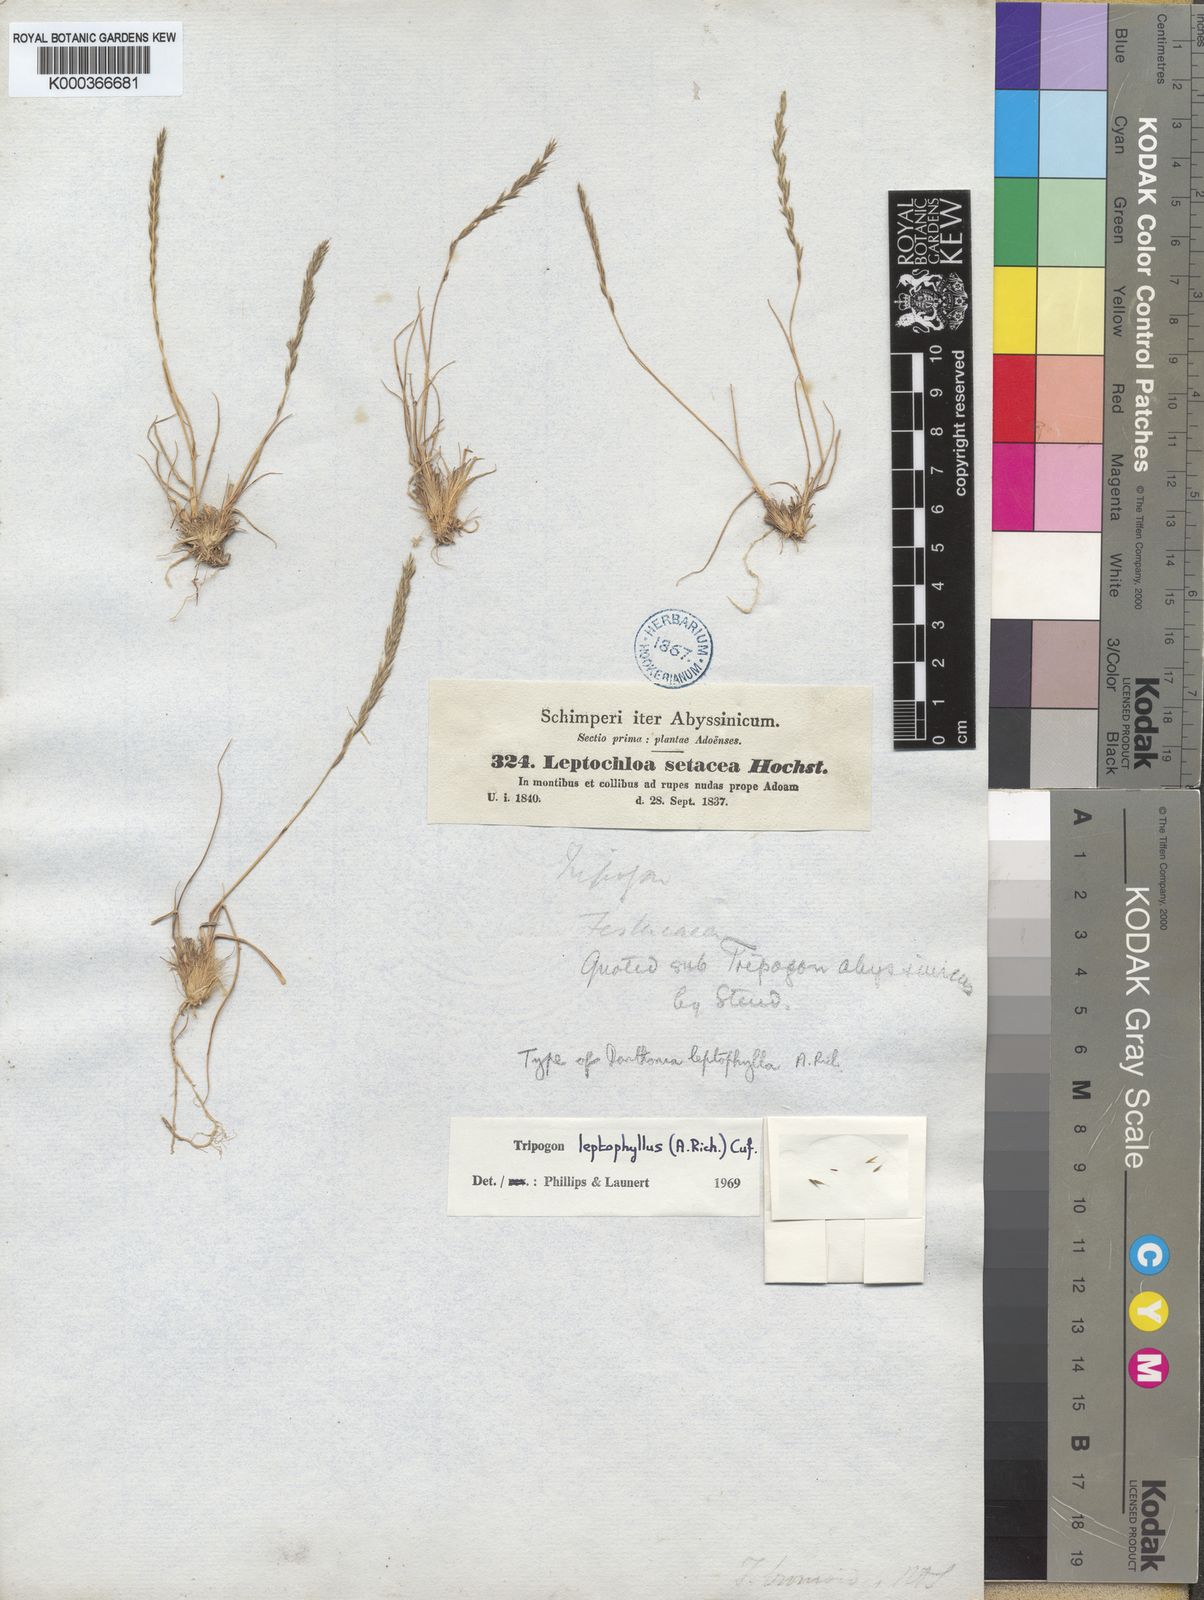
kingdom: Plantae
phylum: Tracheophyta
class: Liliopsida
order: Poales
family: Poaceae
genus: Tripogon
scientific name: Tripogon leptophyllus
